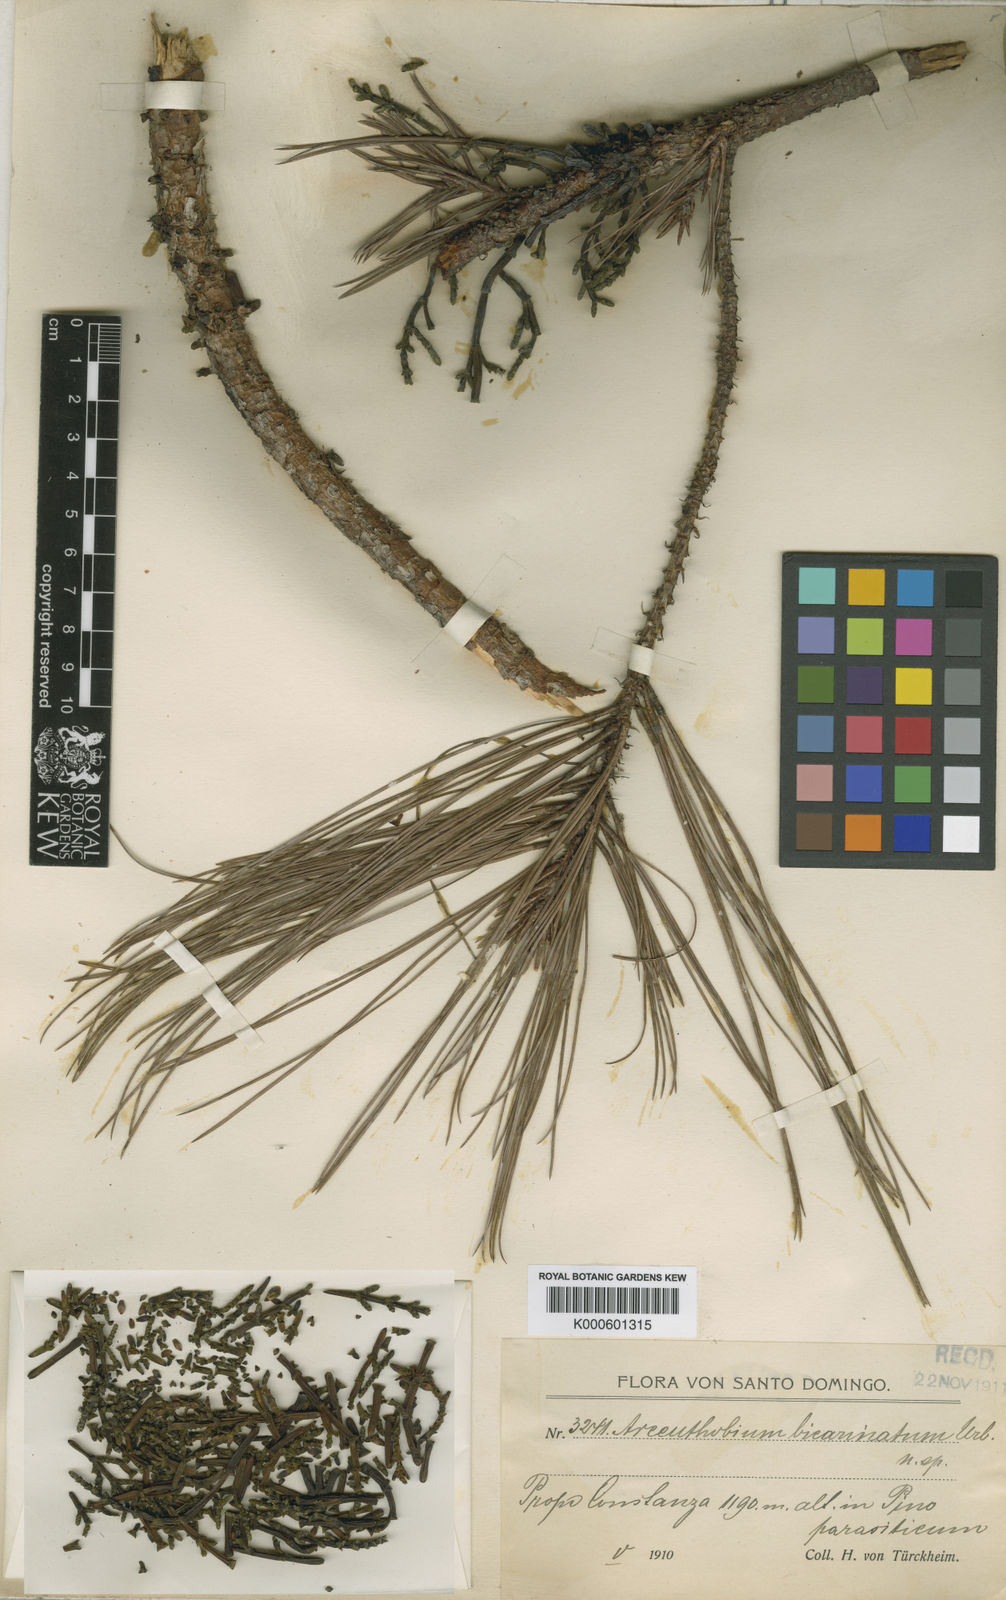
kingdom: Plantae
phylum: Tracheophyta
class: Magnoliopsida
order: Santalales
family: Viscaceae
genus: Arceuthobium
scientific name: Arceuthobium bicarinatum
